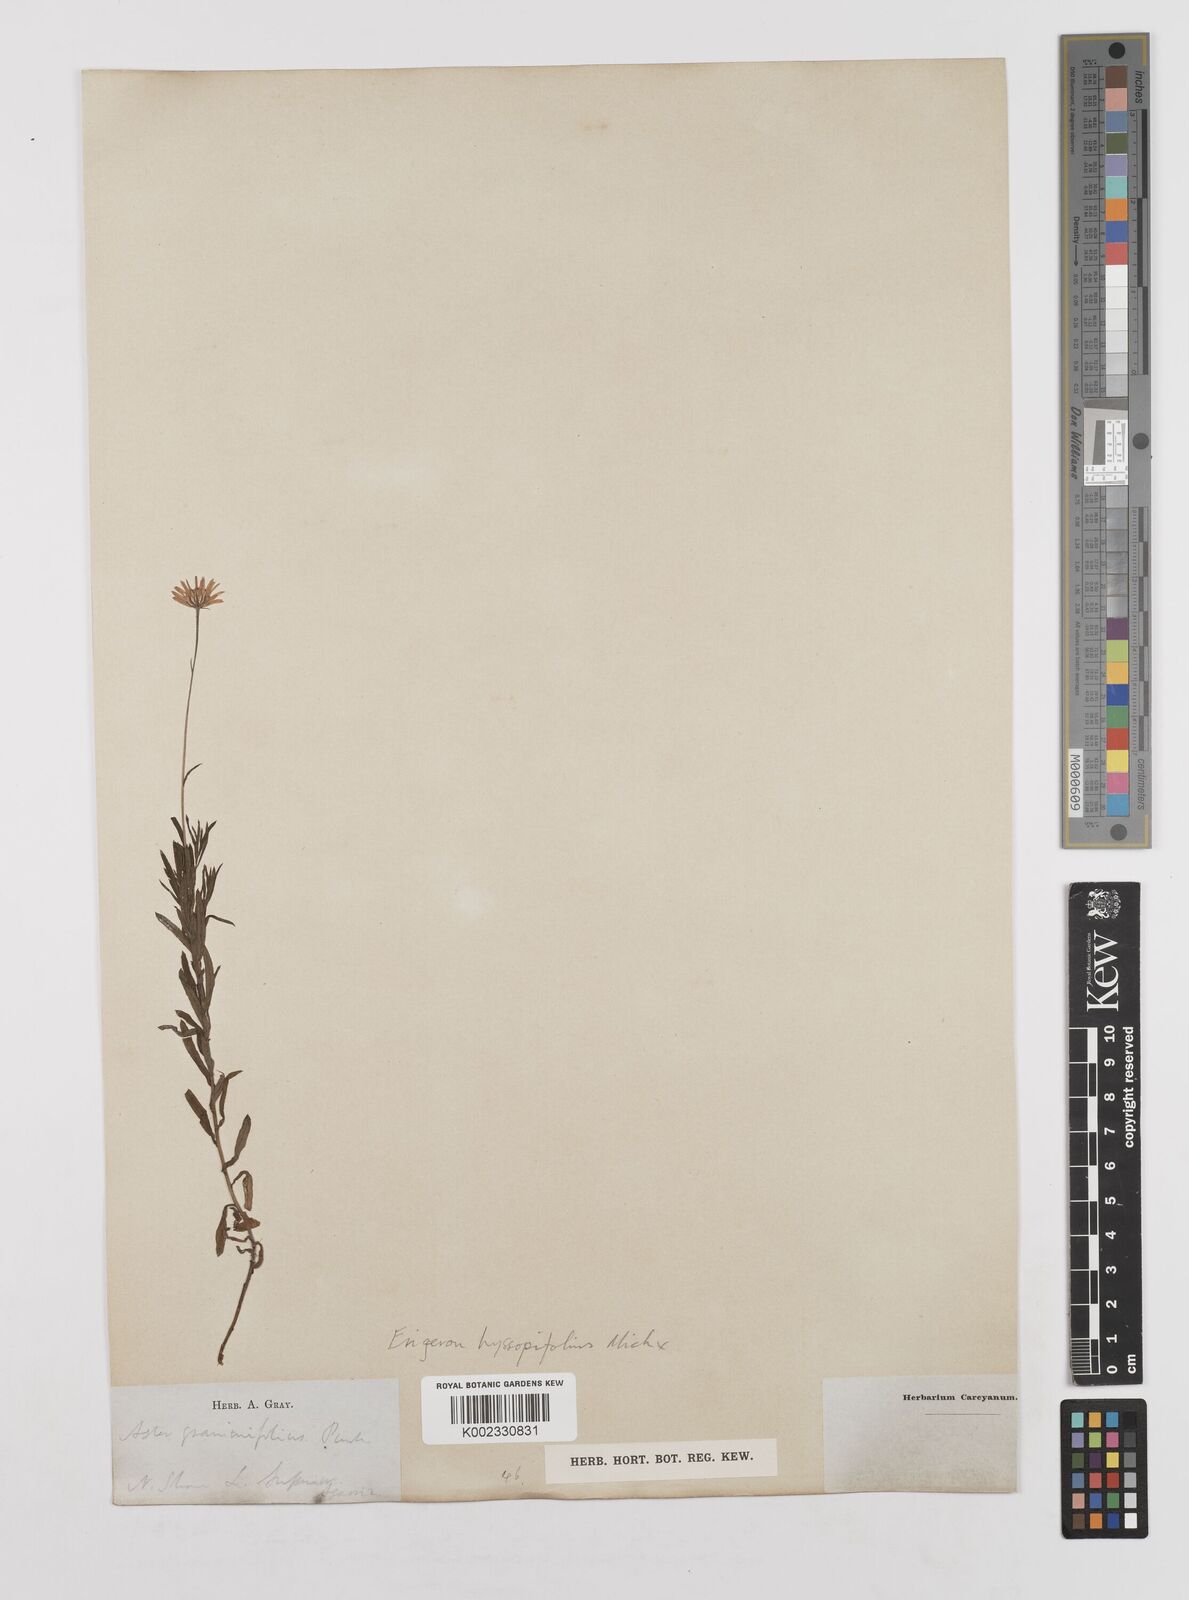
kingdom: Plantae
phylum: Tracheophyta
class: Magnoliopsida
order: Asterales
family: Asteraceae
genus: Erigeron
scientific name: Erigeron hyssopifolius
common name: Daisy fleabane
